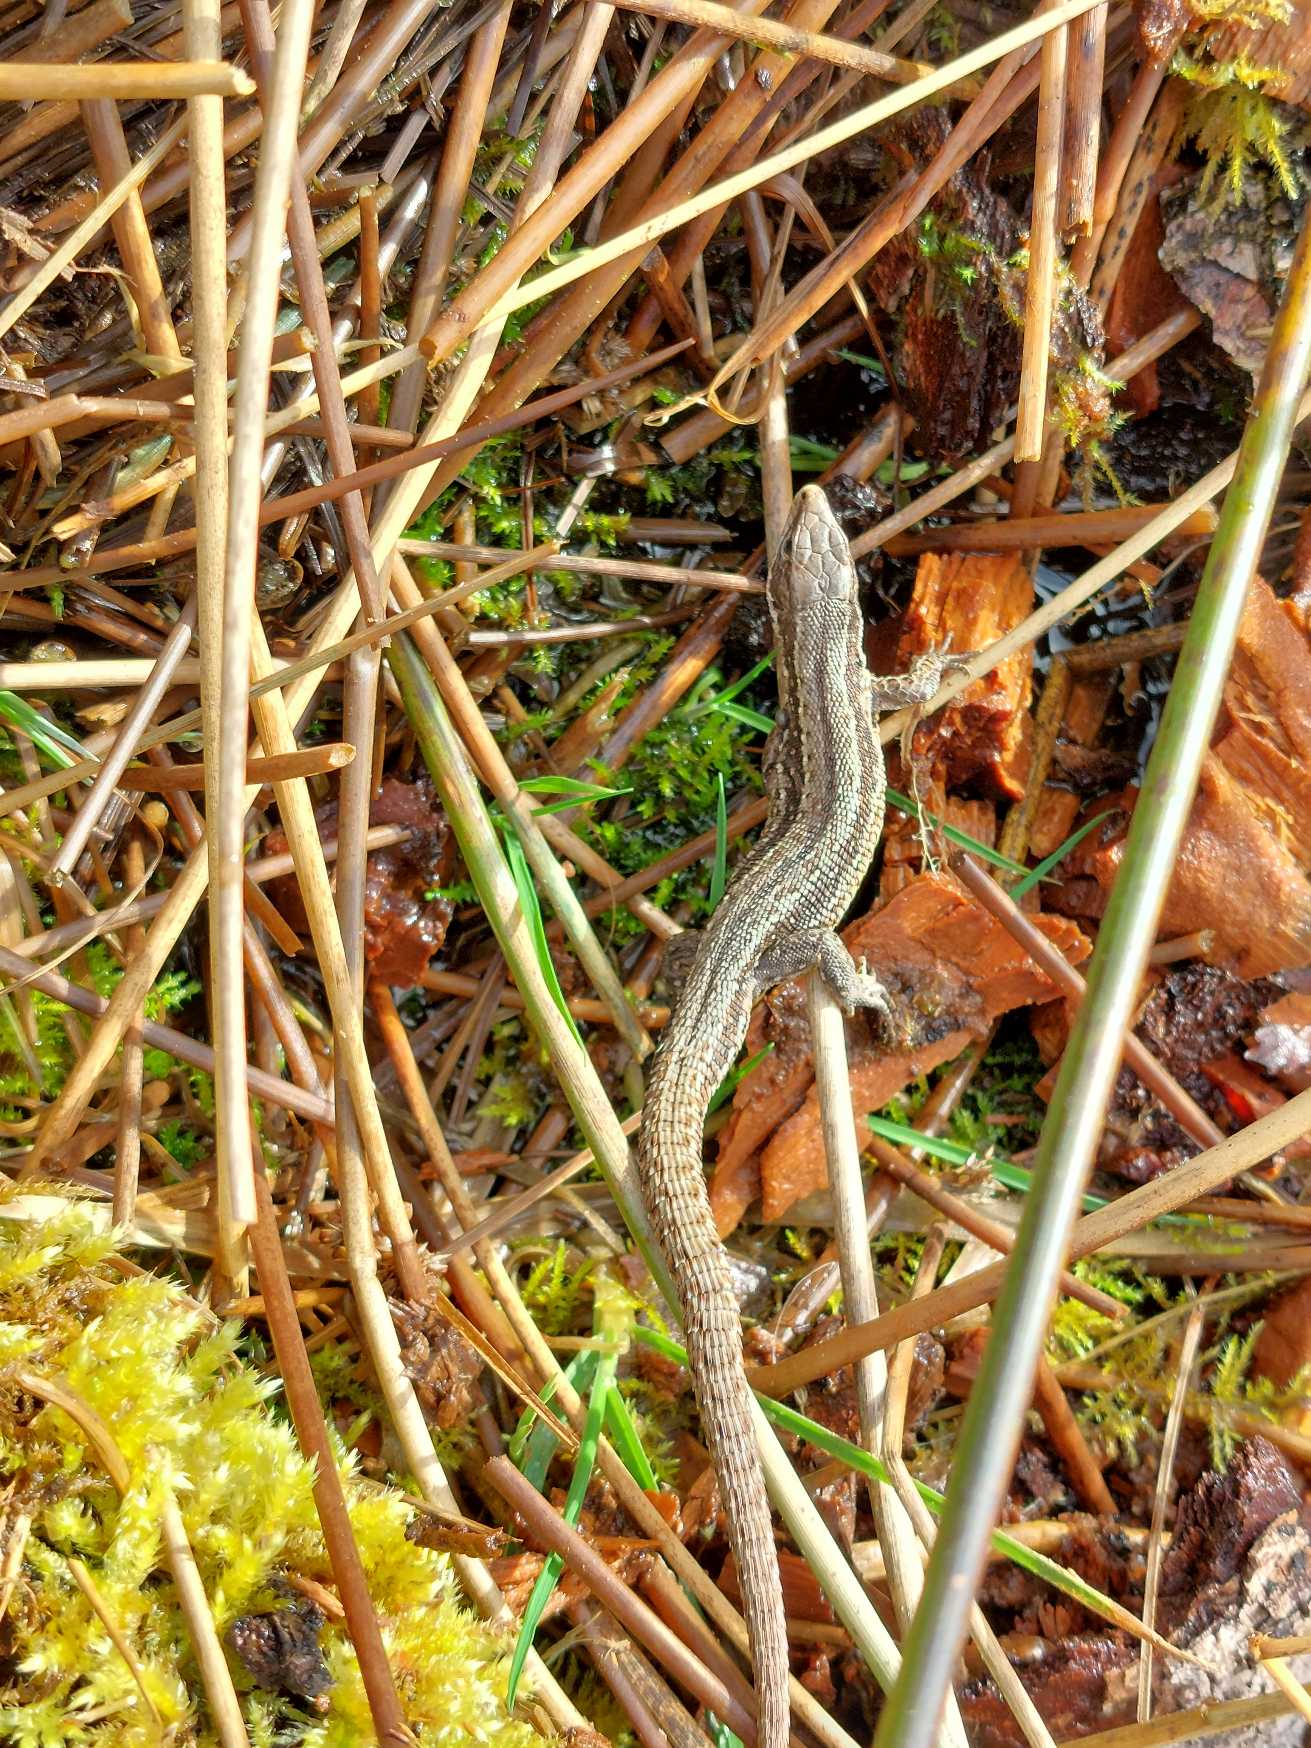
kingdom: Animalia
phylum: Chordata
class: Squamata
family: Lacertidae
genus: Zootoca
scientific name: Zootoca vivipara
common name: Skovfirben
